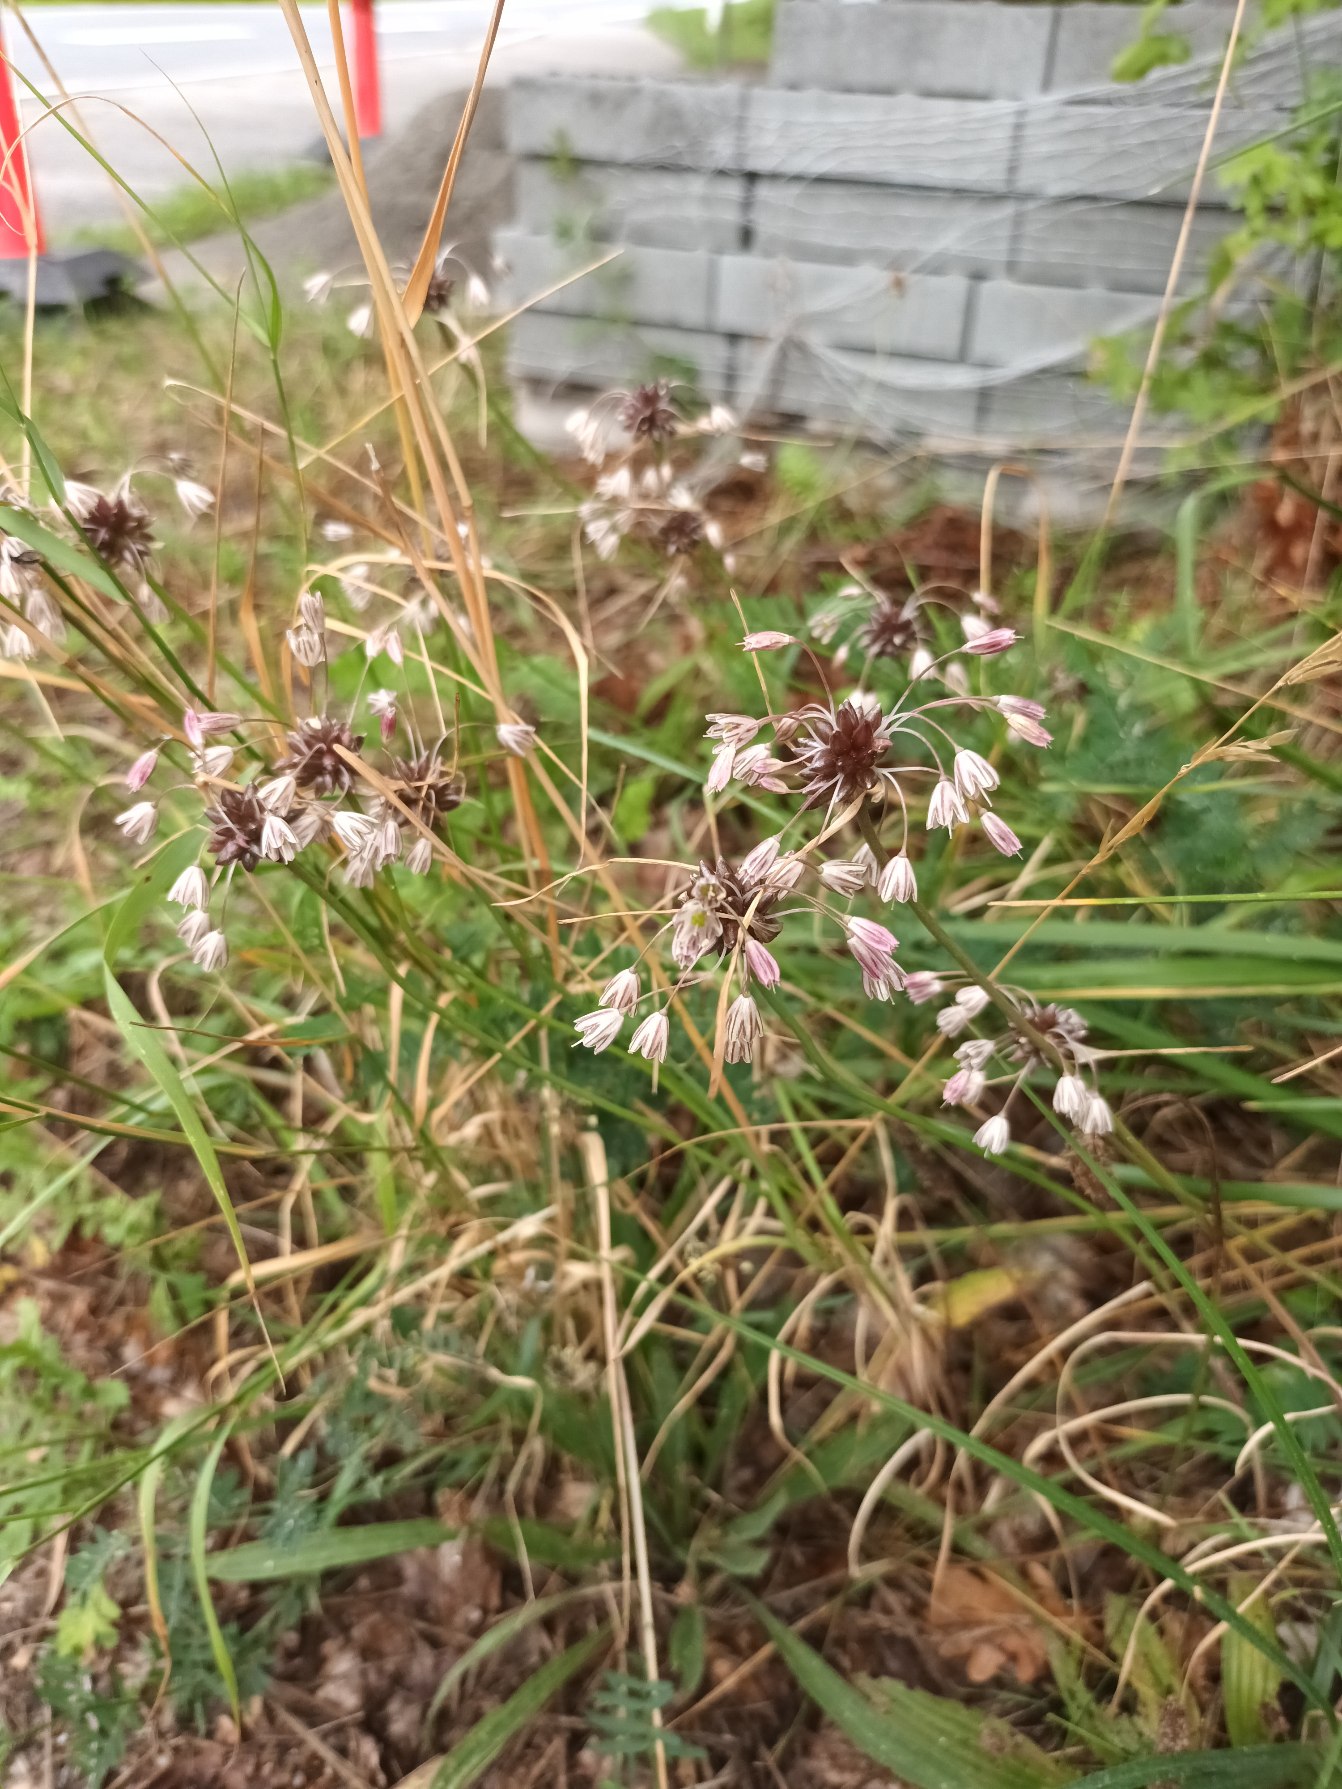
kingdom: Plantae
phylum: Tracheophyta
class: Liliopsida
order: Asparagales
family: Amaryllidaceae
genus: Allium
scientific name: Allium oleraceum
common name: Vild løg
